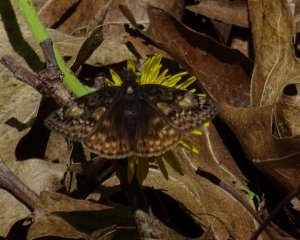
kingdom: Animalia
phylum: Arthropoda
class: Insecta
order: Lepidoptera
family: Hesperiidae
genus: Gesta
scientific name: Gesta
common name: Juvenal's Duskywing
